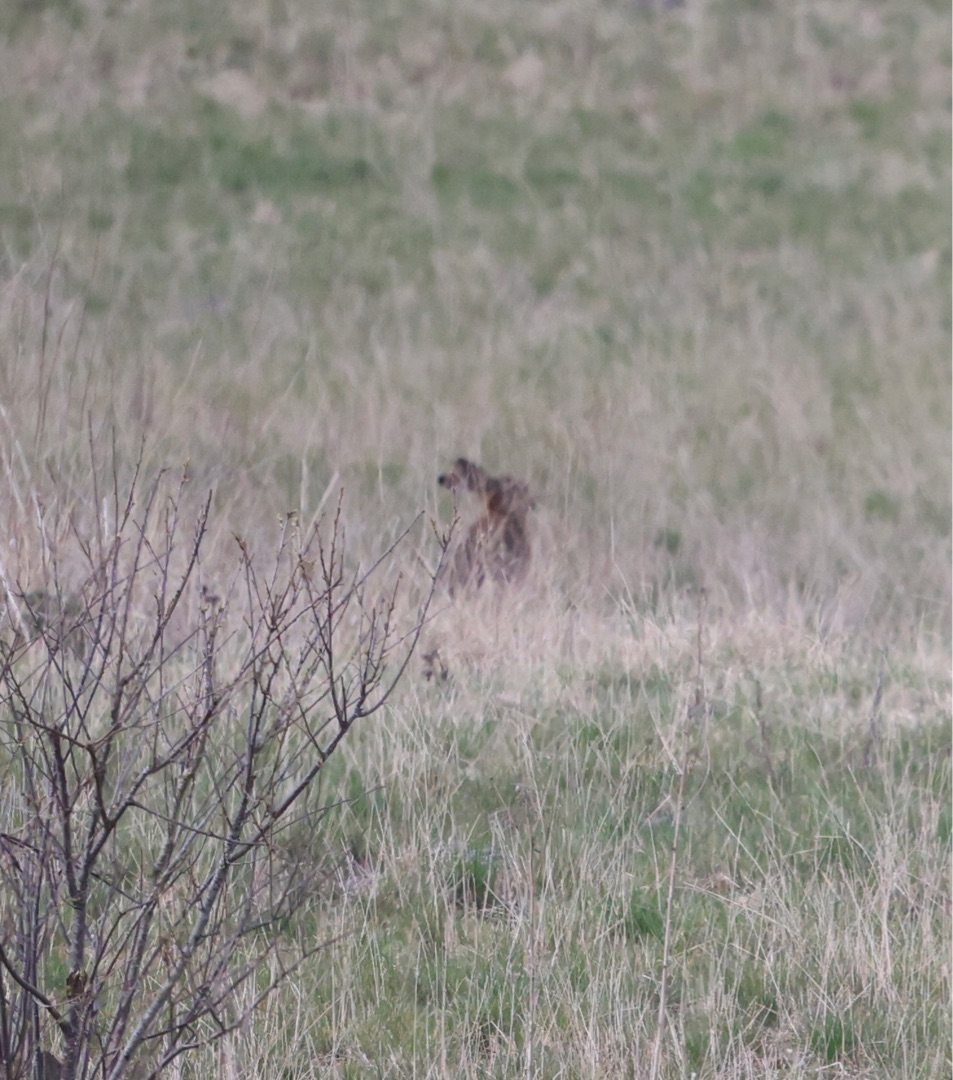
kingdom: Animalia
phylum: Chordata
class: Mammalia
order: Lagomorpha
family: Leporidae
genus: Lepus
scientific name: Lepus europaeus
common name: Hare
